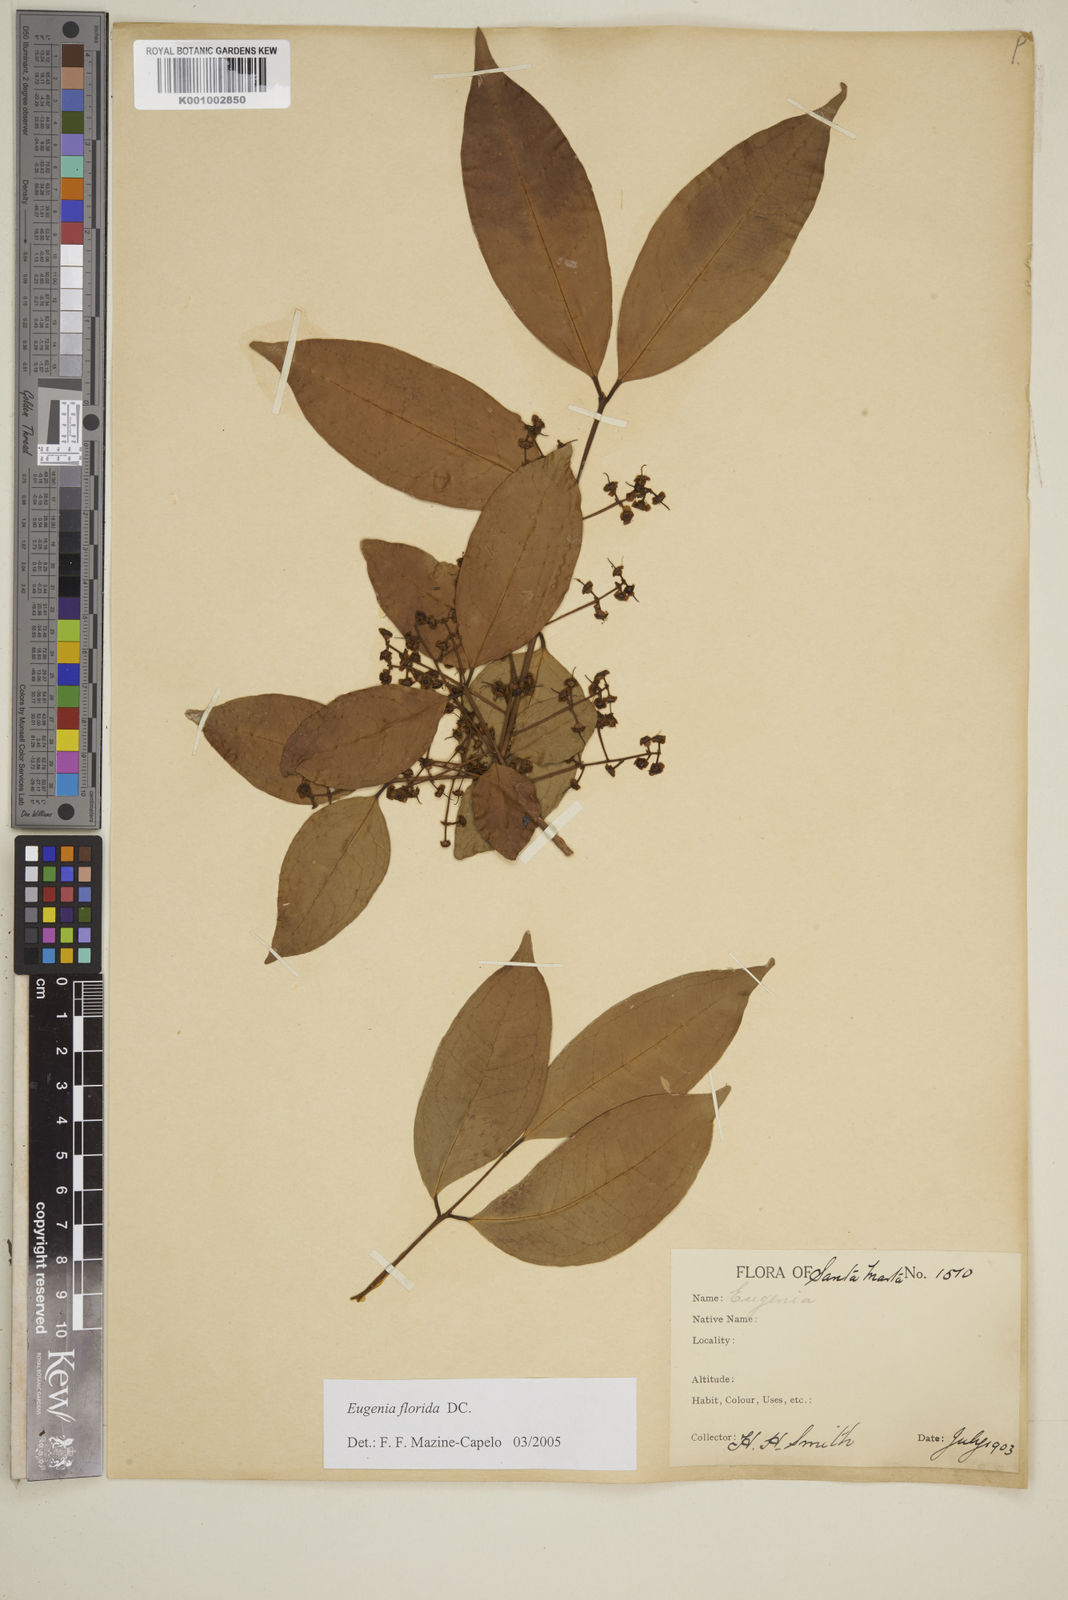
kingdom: Plantae
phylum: Tracheophyta
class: Magnoliopsida
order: Myrtales
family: Myrtaceae
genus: Eugenia
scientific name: Eugenia florida
